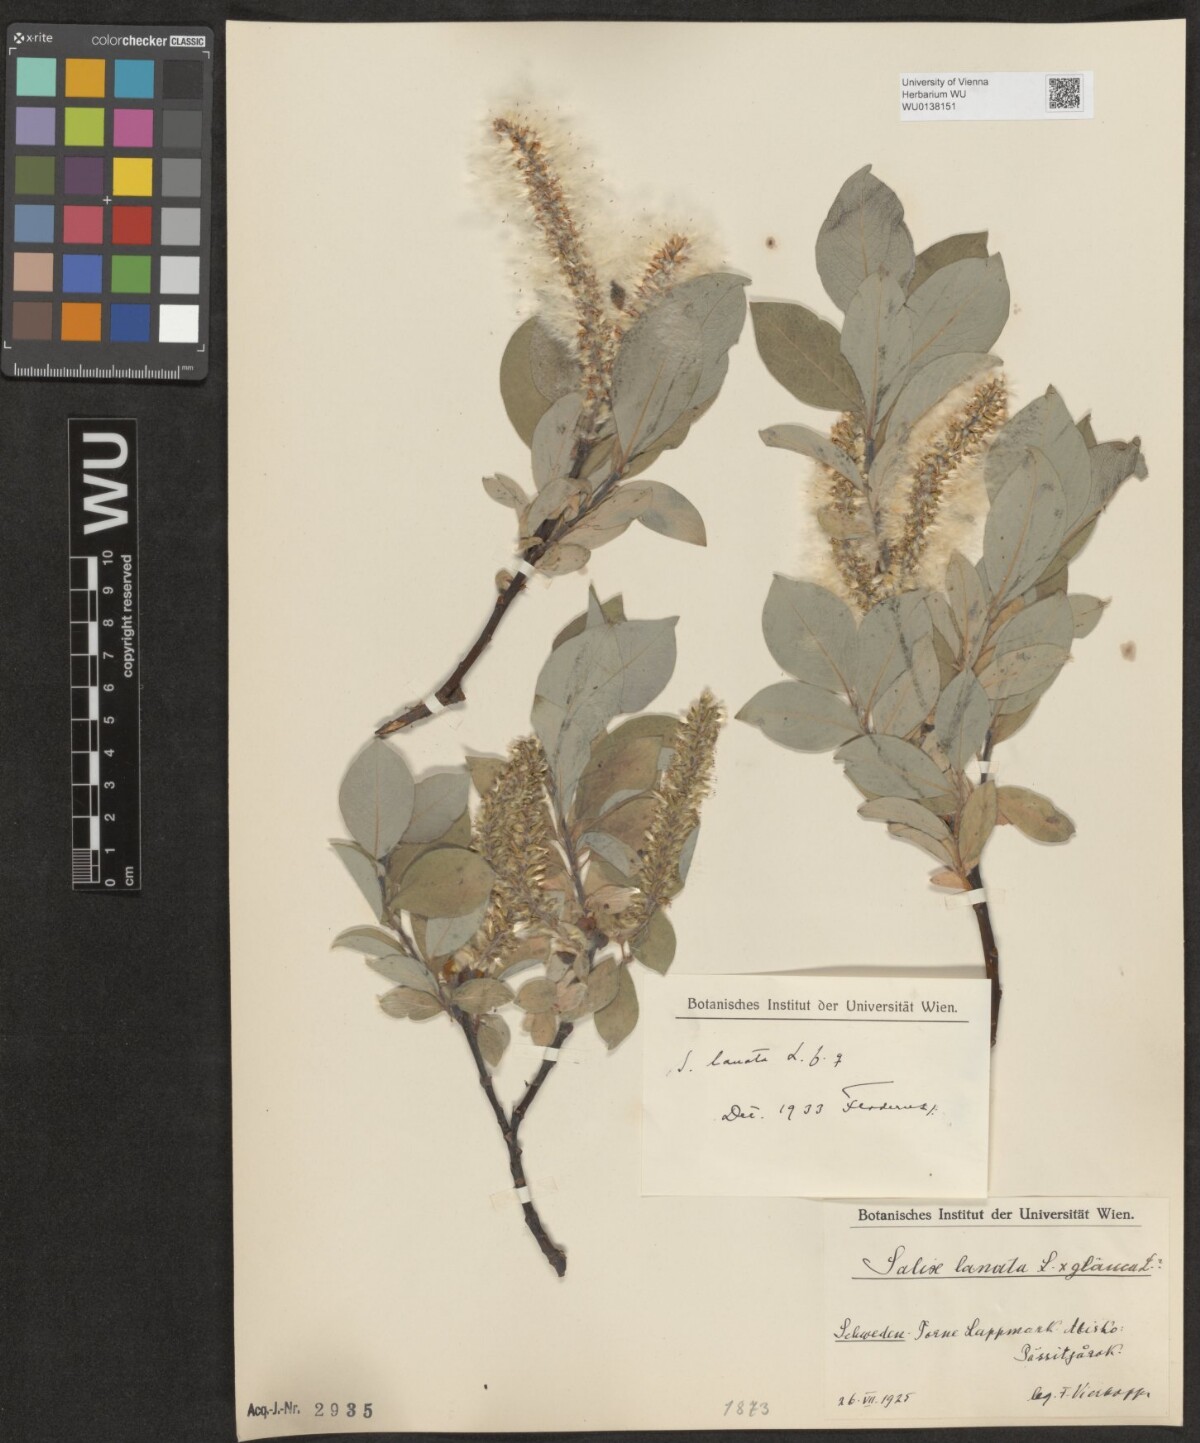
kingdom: Plantae
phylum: Tracheophyta
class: Magnoliopsida
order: Malpighiales
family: Salicaceae
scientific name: Salicaceae
